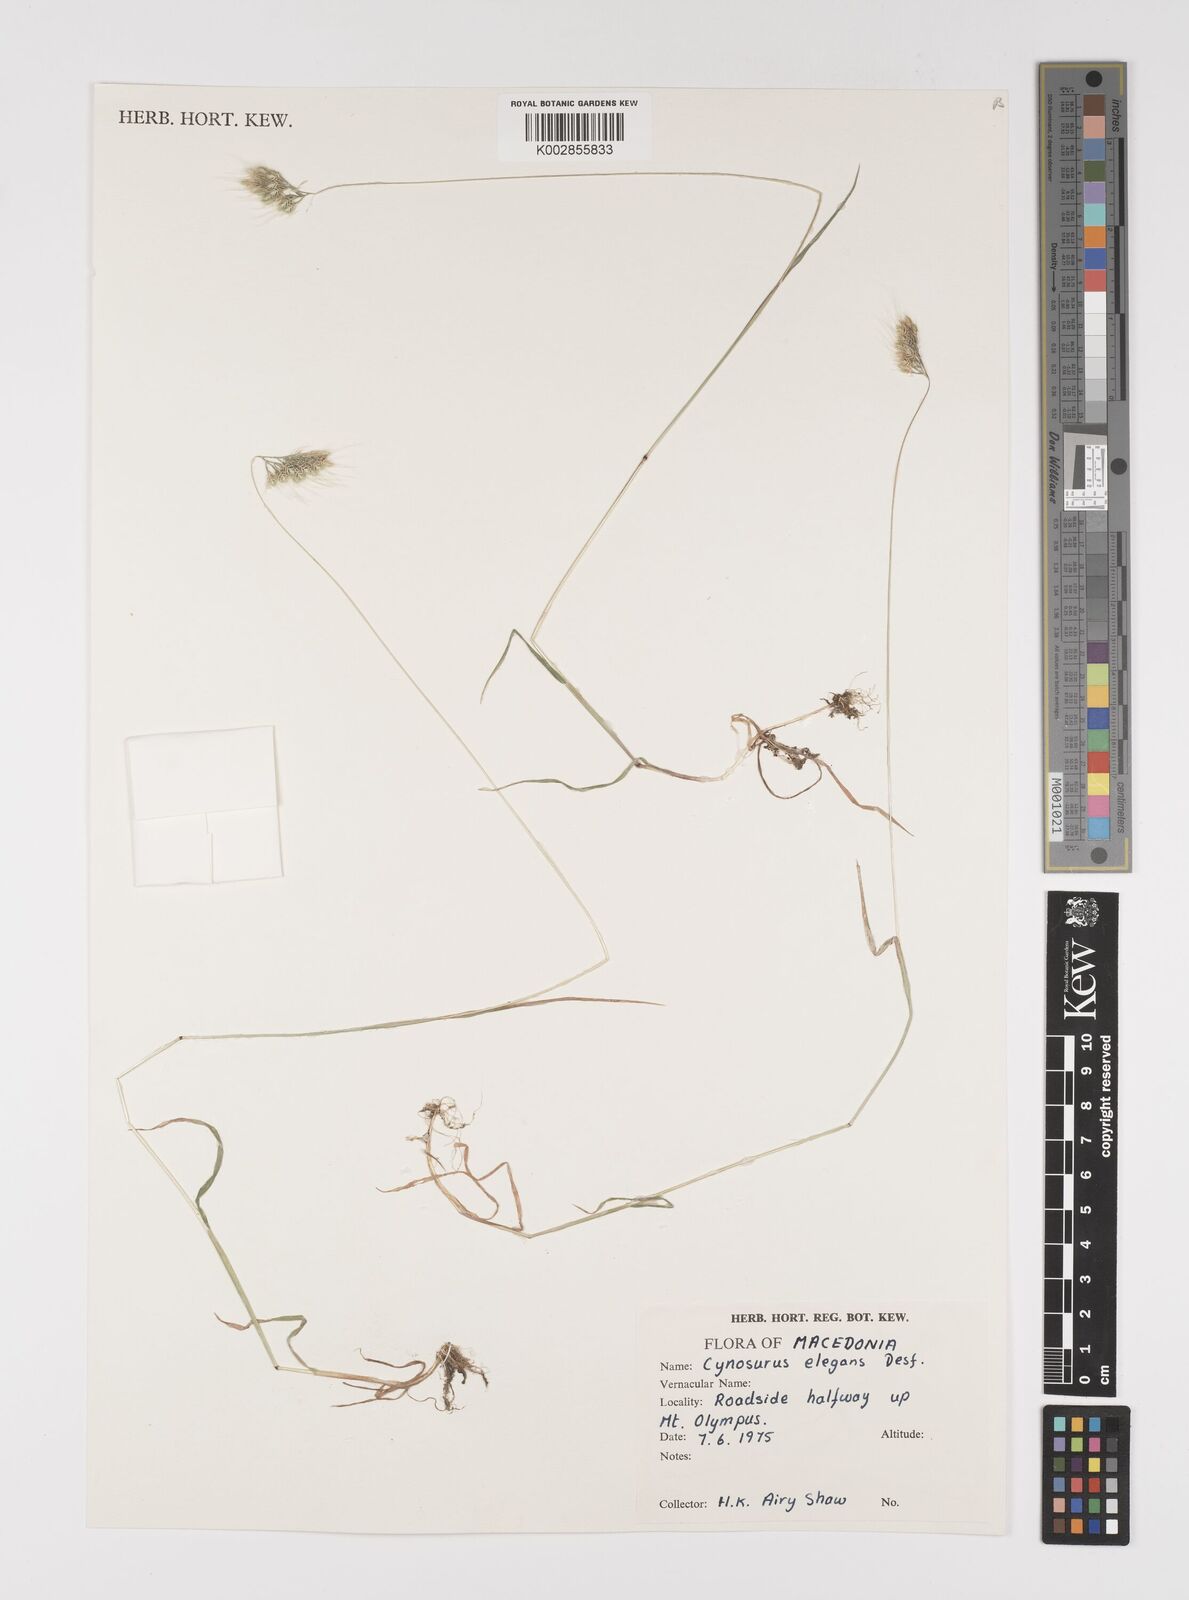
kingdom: Plantae
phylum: Tracheophyta
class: Liliopsida
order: Poales
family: Poaceae
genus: Cynosurus
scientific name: Cynosurus elegans
